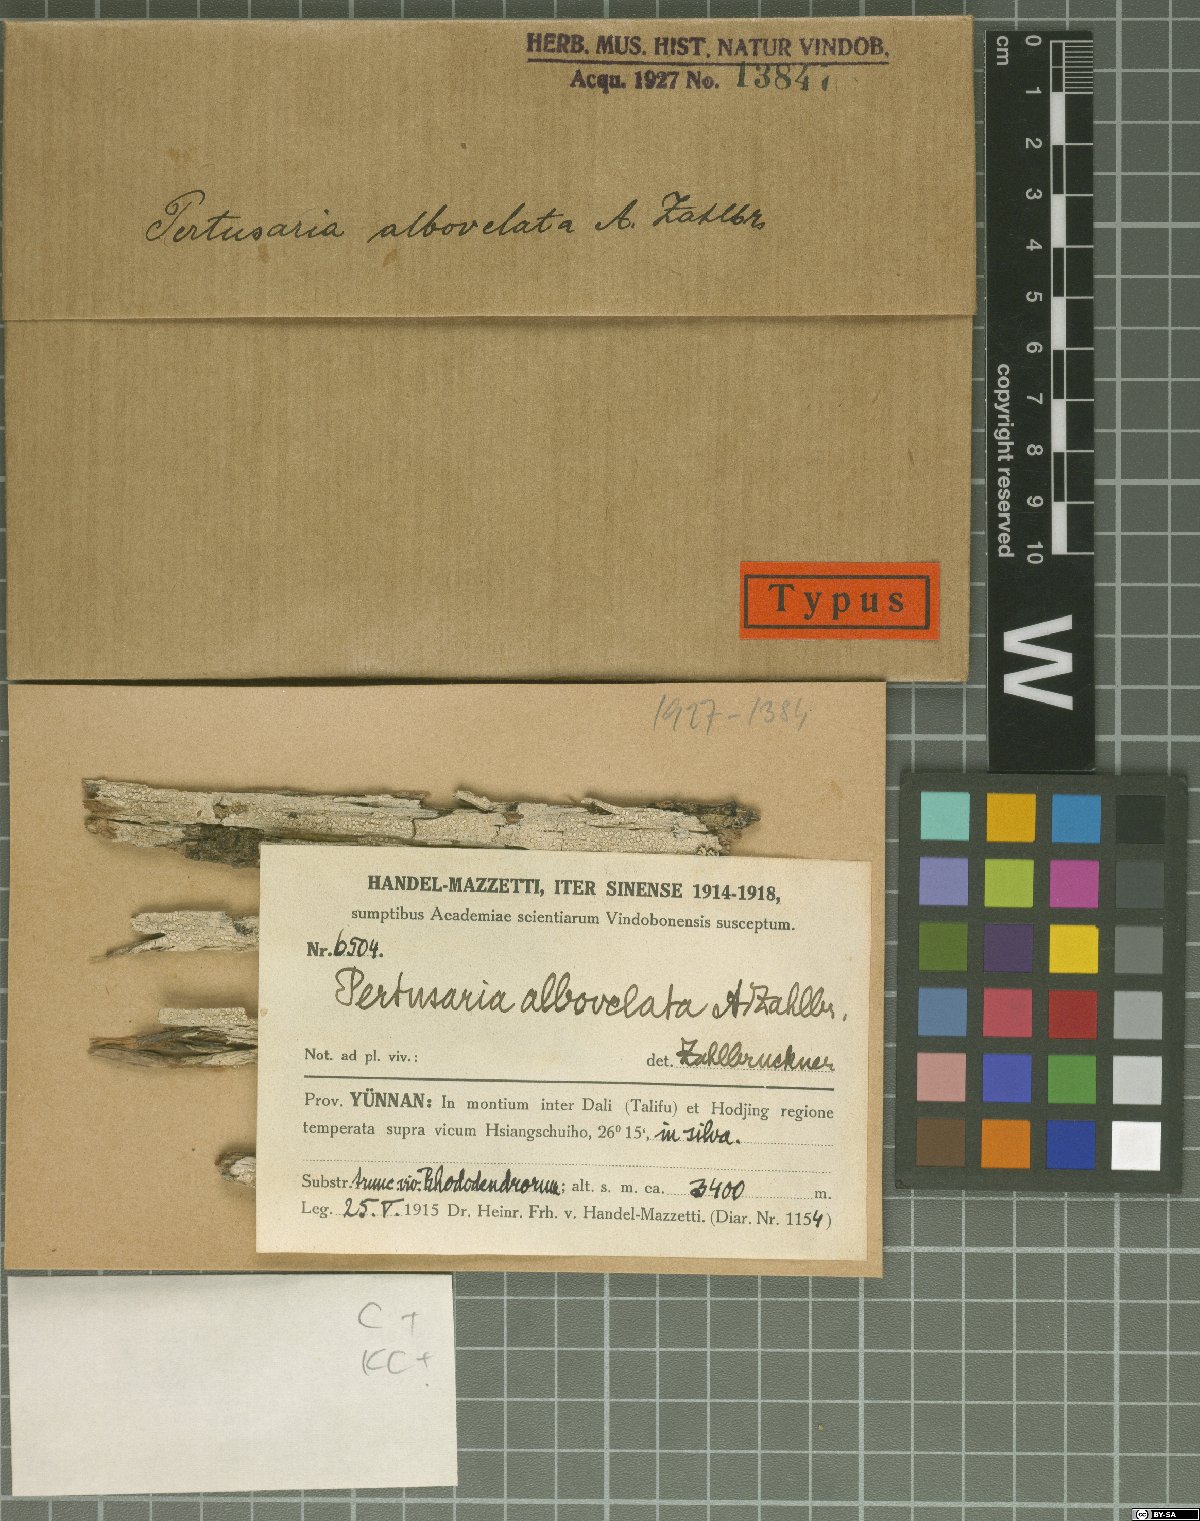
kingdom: Fungi
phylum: Ascomycota
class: Lecanoromycetes
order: Pertusariales
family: Pertusariaceae
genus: Pertusaria
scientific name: Pertusaria
